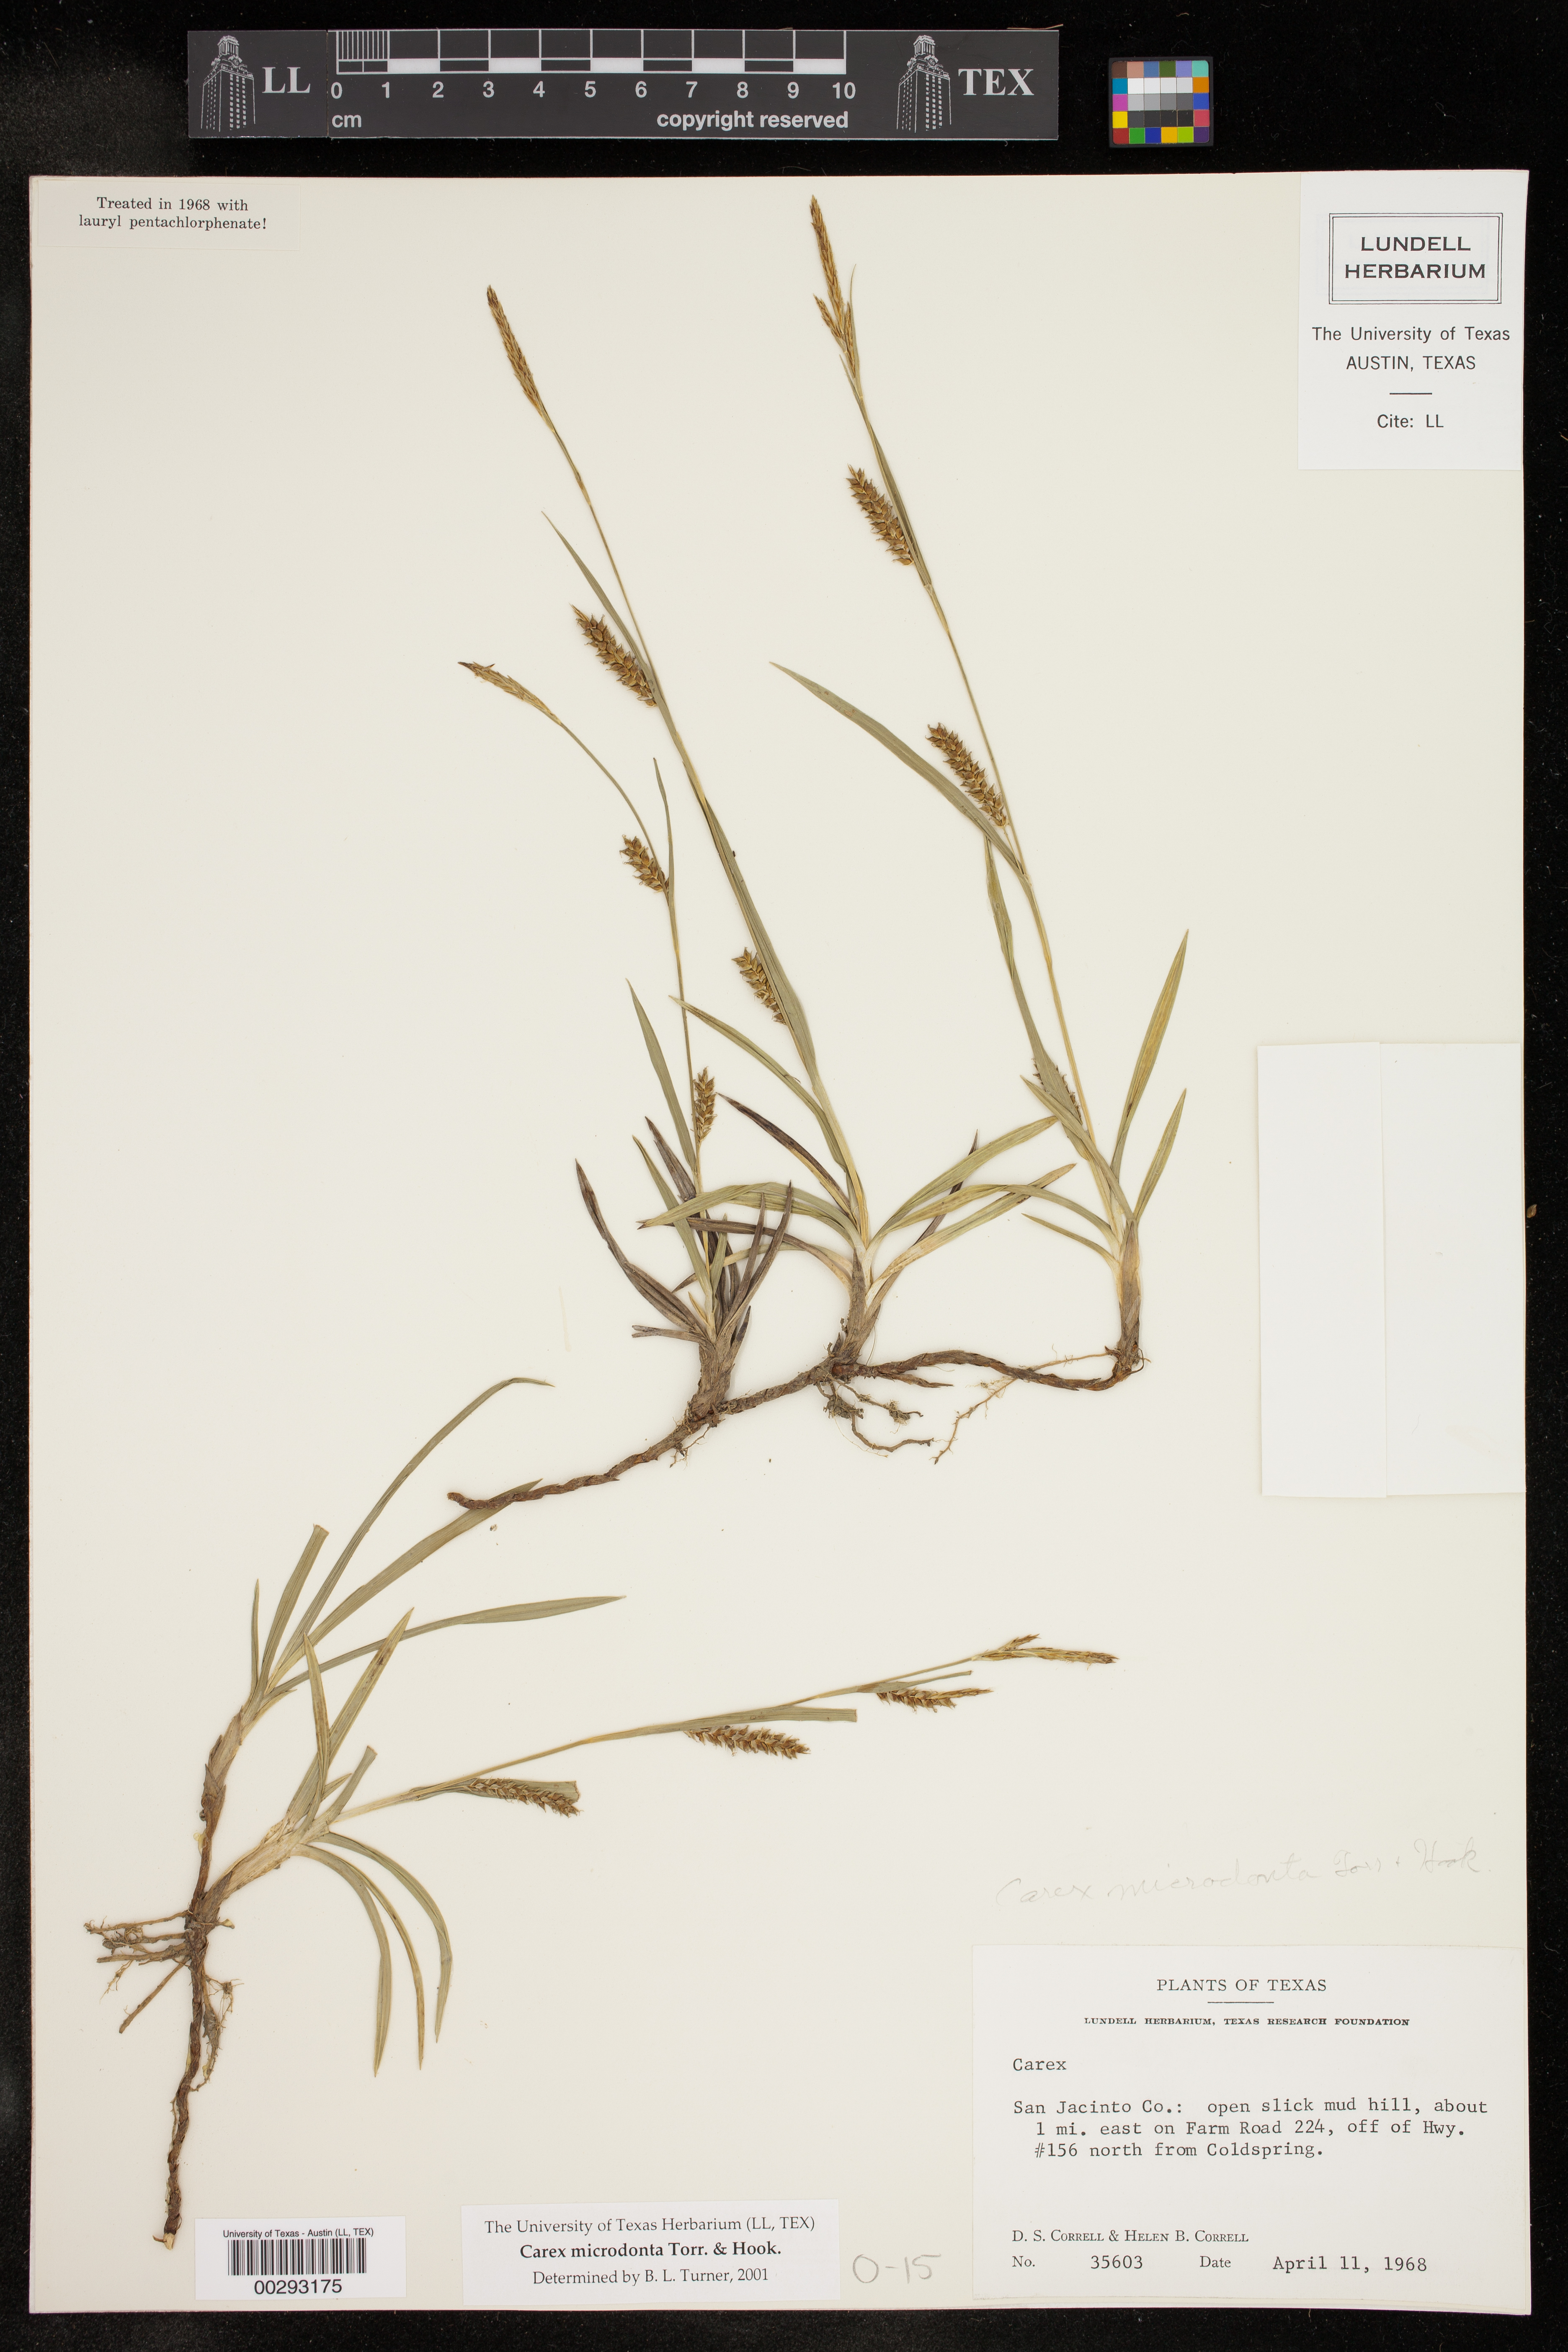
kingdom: Plantae
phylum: Tracheophyta
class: Liliopsida
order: Poales
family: Cyperaceae
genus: Carex
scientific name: Carex microdonta
